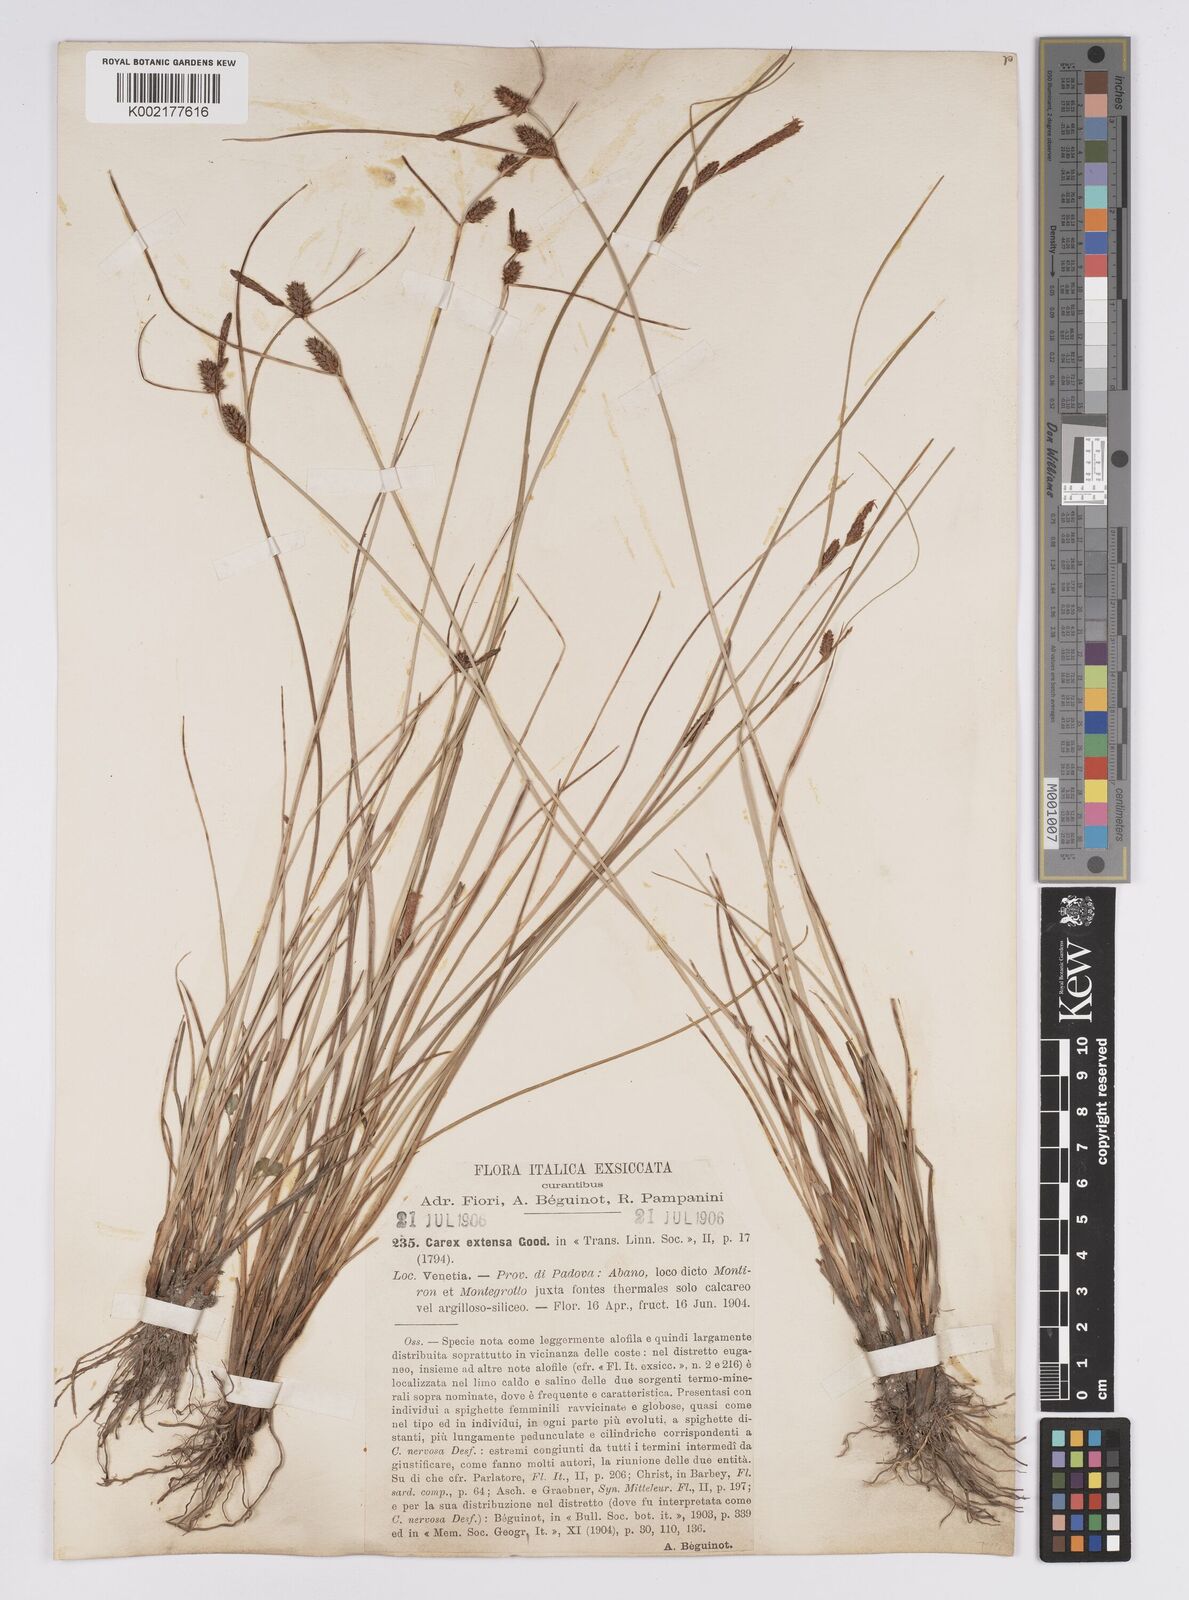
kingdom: Plantae
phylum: Tracheophyta
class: Liliopsida
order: Poales
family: Cyperaceae
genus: Carex
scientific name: Carex extensa
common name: Long-bracted sedge
